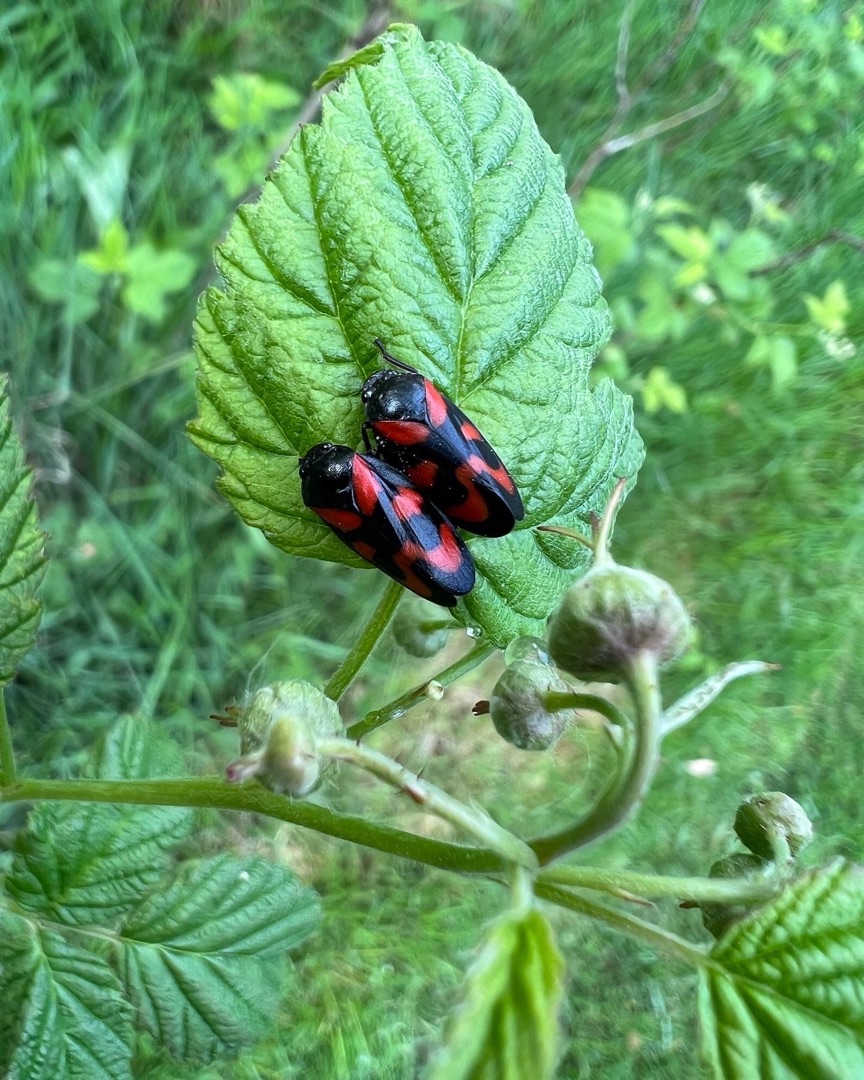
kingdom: Animalia
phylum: Arthropoda
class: Insecta
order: Hemiptera
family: Cercopidae
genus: Cercopis
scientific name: Cercopis vulnerata
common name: Blodcikade
